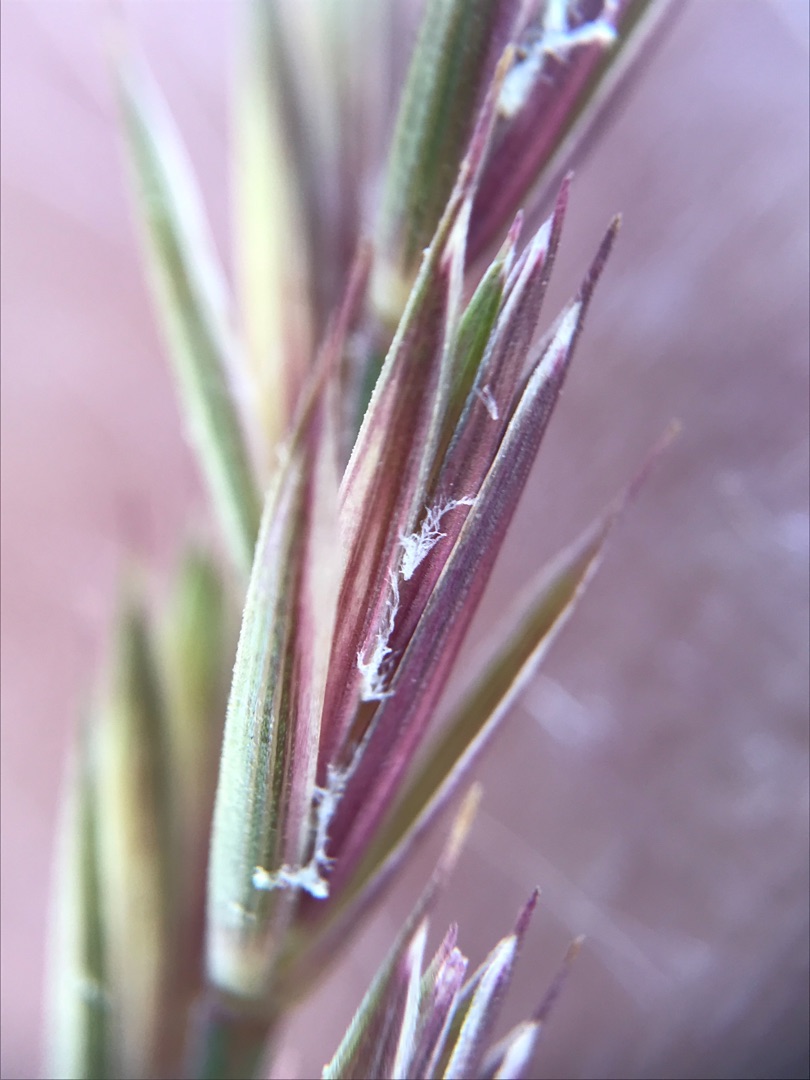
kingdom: Plantae
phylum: Tracheophyta
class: Liliopsida
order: Poales
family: Poaceae
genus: Elymus
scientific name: Elymus repens
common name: Almindelig kvik
